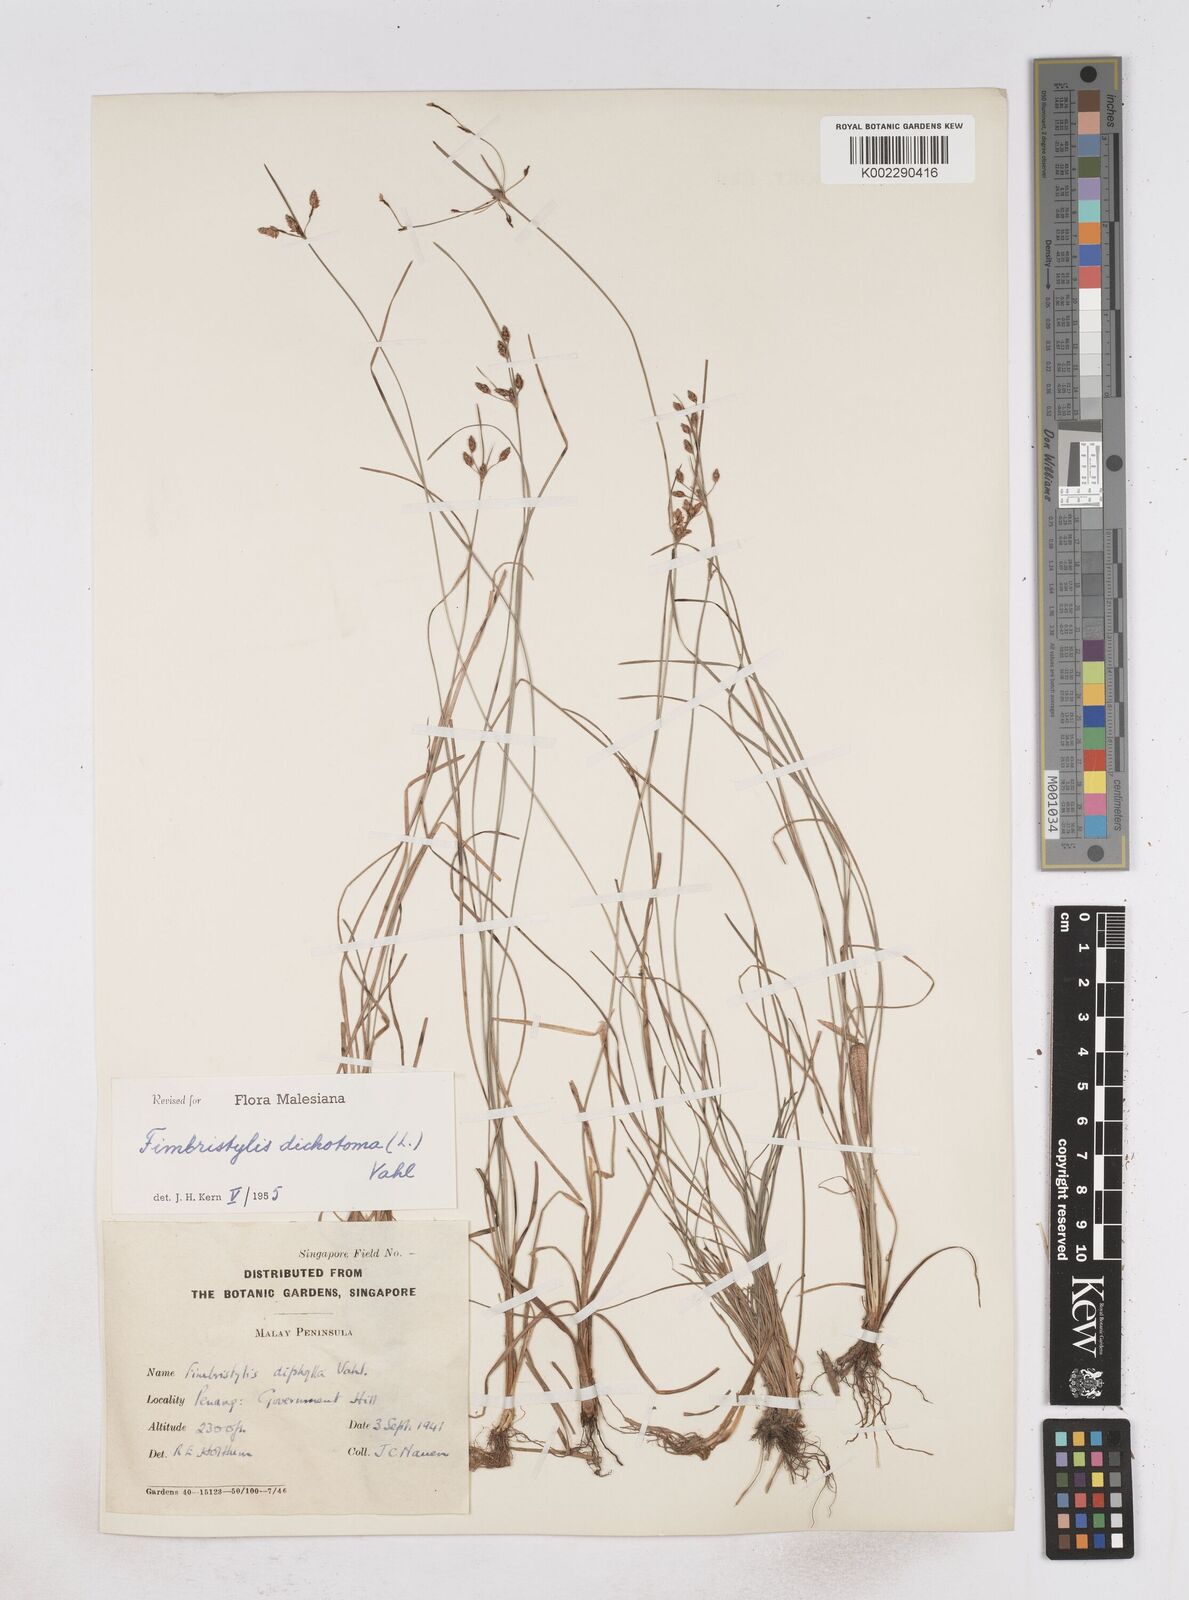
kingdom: Plantae
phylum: Tracheophyta
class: Liliopsida
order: Poales
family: Cyperaceae
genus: Fimbristylis
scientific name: Fimbristylis dichotoma
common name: Forked fimbry
